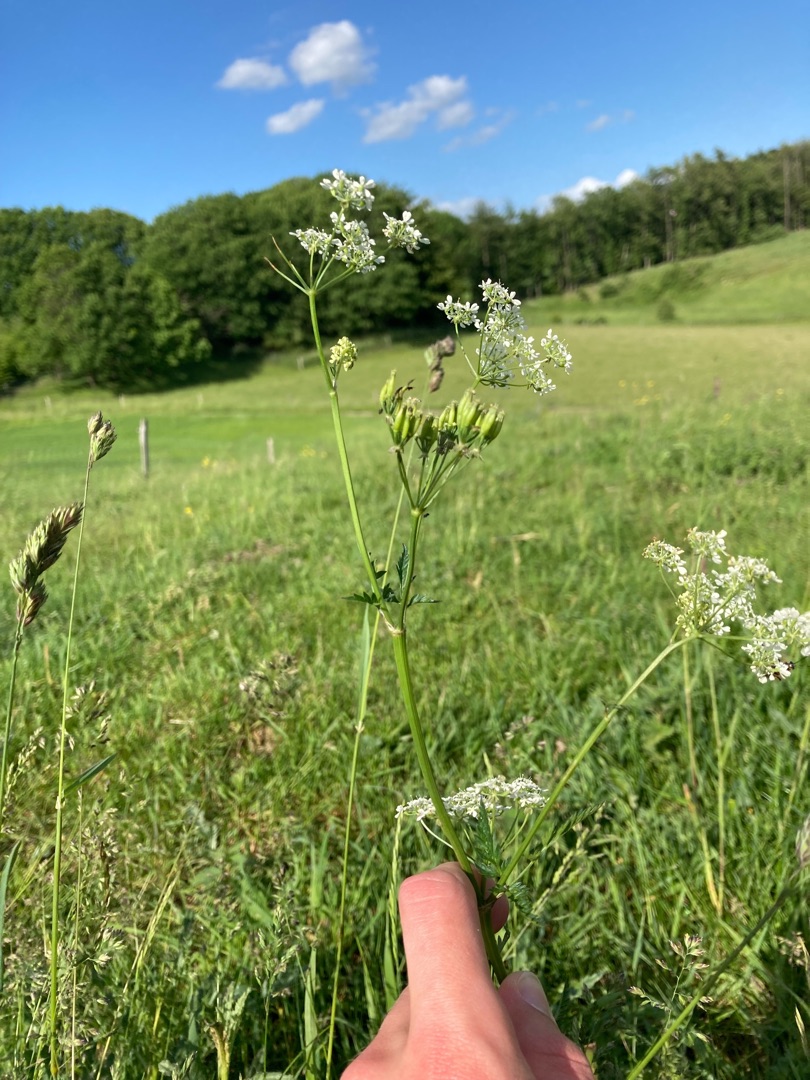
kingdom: Plantae
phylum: Tracheophyta
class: Magnoliopsida
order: Apiales
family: Apiaceae
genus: Anthriscus
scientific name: Anthriscus sylvestris
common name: Vild kørvel
